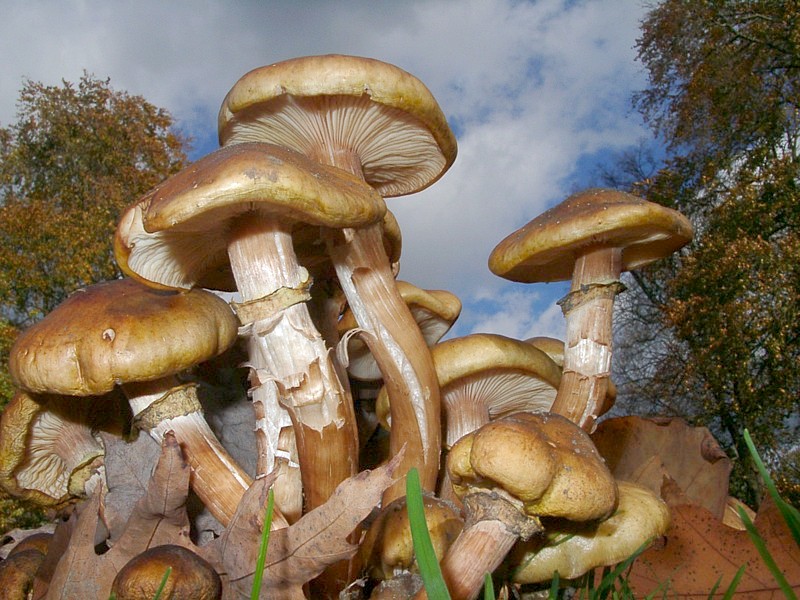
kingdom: Fungi
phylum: Basidiomycota
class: Agaricomycetes
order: Agaricales
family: Physalacriaceae
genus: Armillaria
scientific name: Armillaria mellea
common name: Honey fungus
